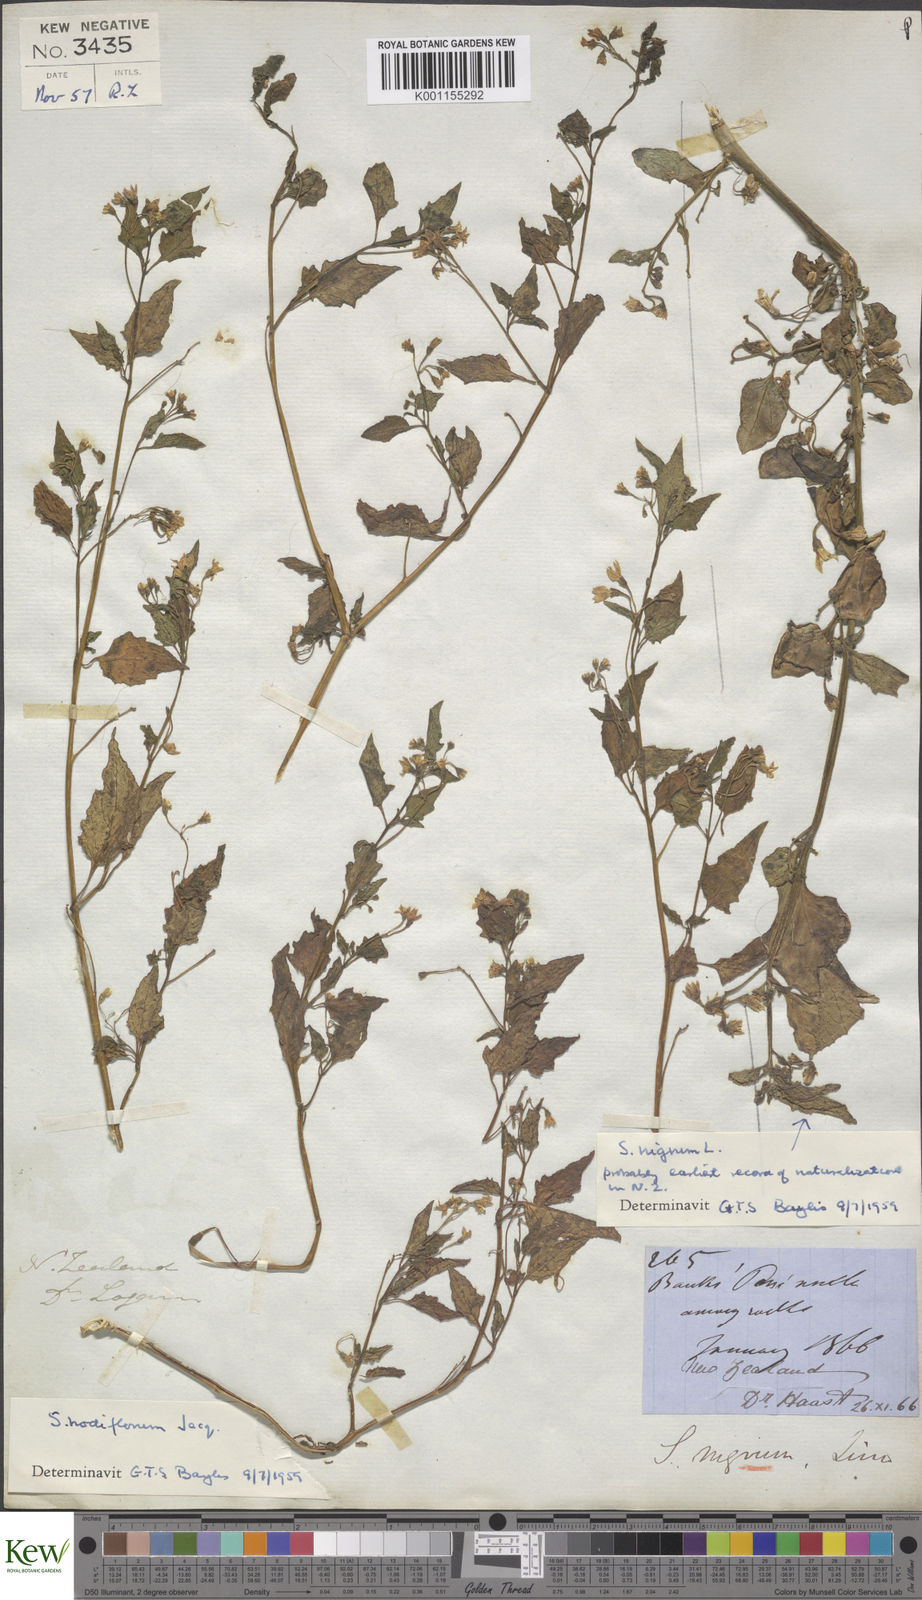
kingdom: Plantae
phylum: Tracheophyta
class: Magnoliopsida
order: Solanales
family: Solanaceae
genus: Solanum
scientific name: Solanum
